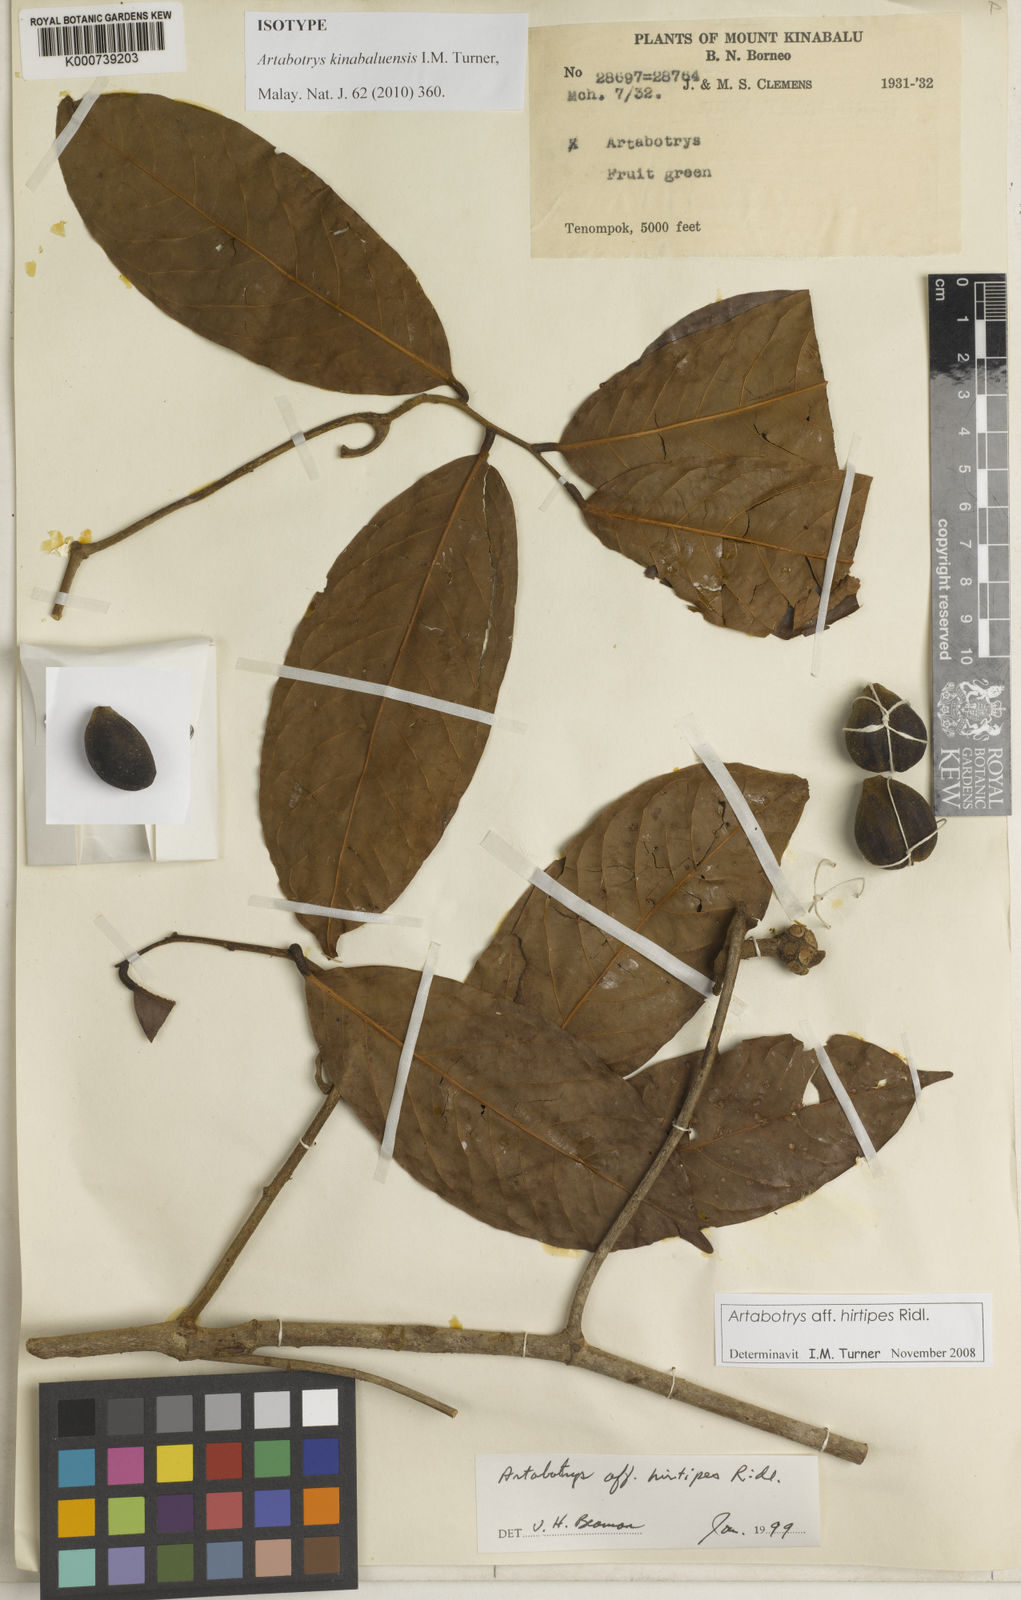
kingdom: Plantae
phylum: Tracheophyta
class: Magnoliopsida
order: Magnoliales
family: Annonaceae
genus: Artabotrys
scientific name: Artabotrys kinabaluensis
